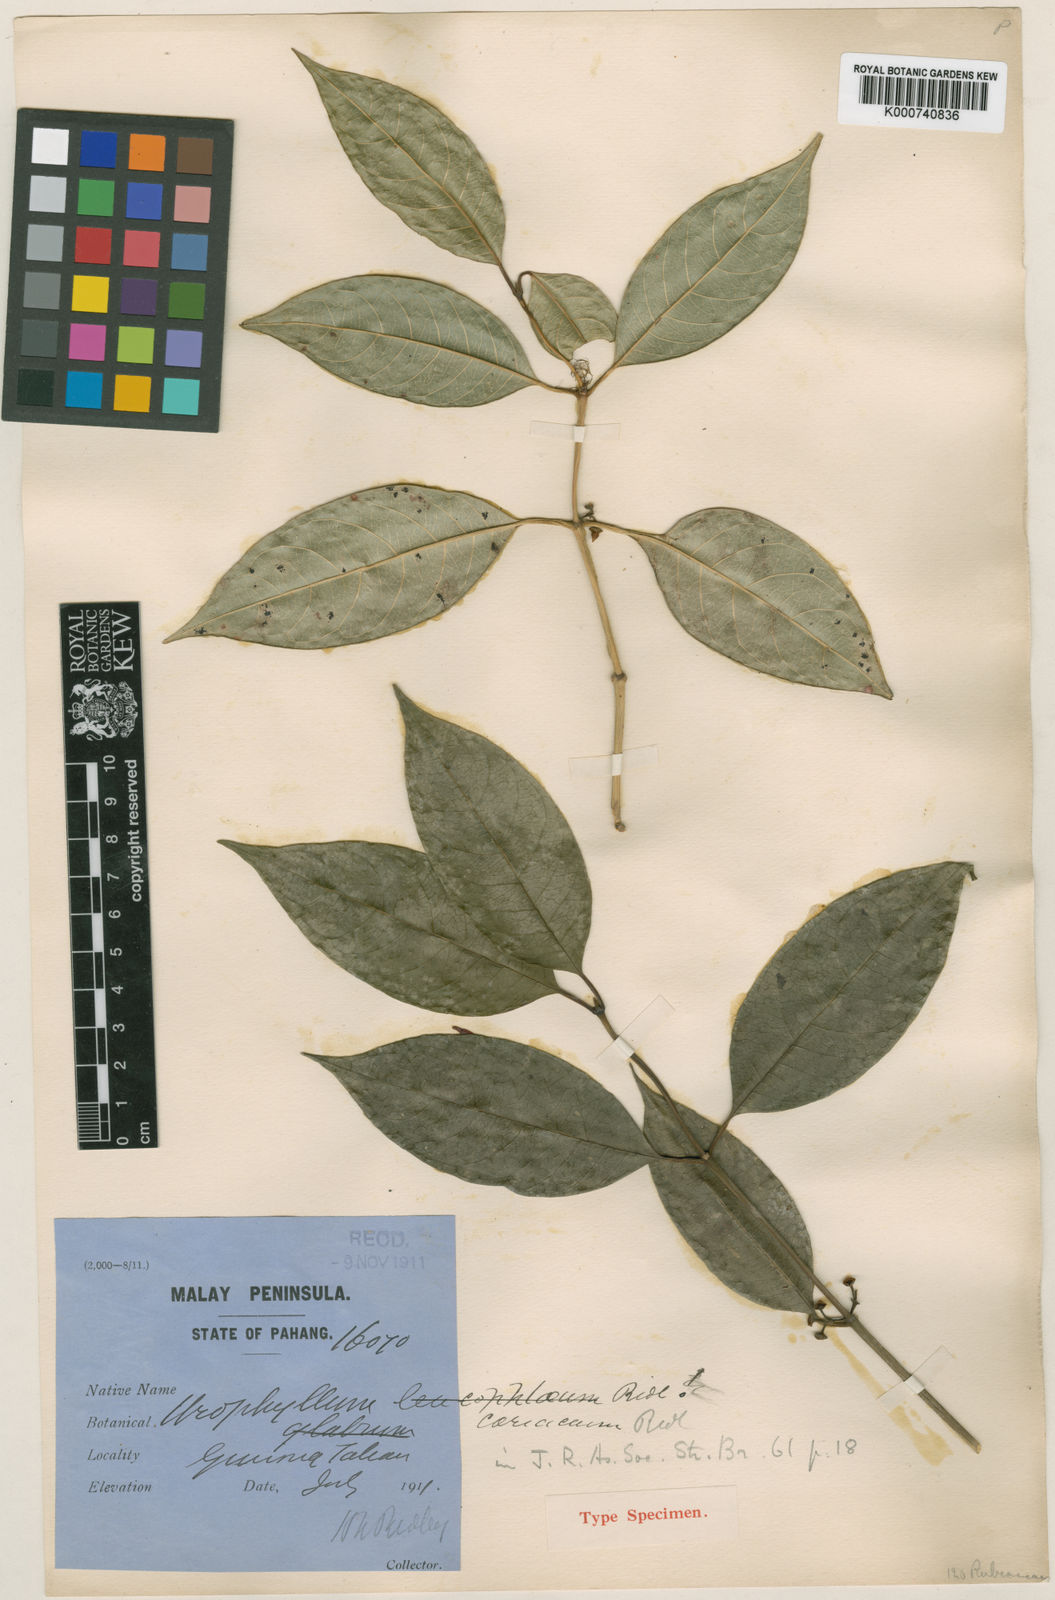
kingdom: Plantae
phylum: Tracheophyta
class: Magnoliopsida
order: Gentianales
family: Rubiaceae
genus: Urophyllum
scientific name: Urophyllum leucophlaeum
